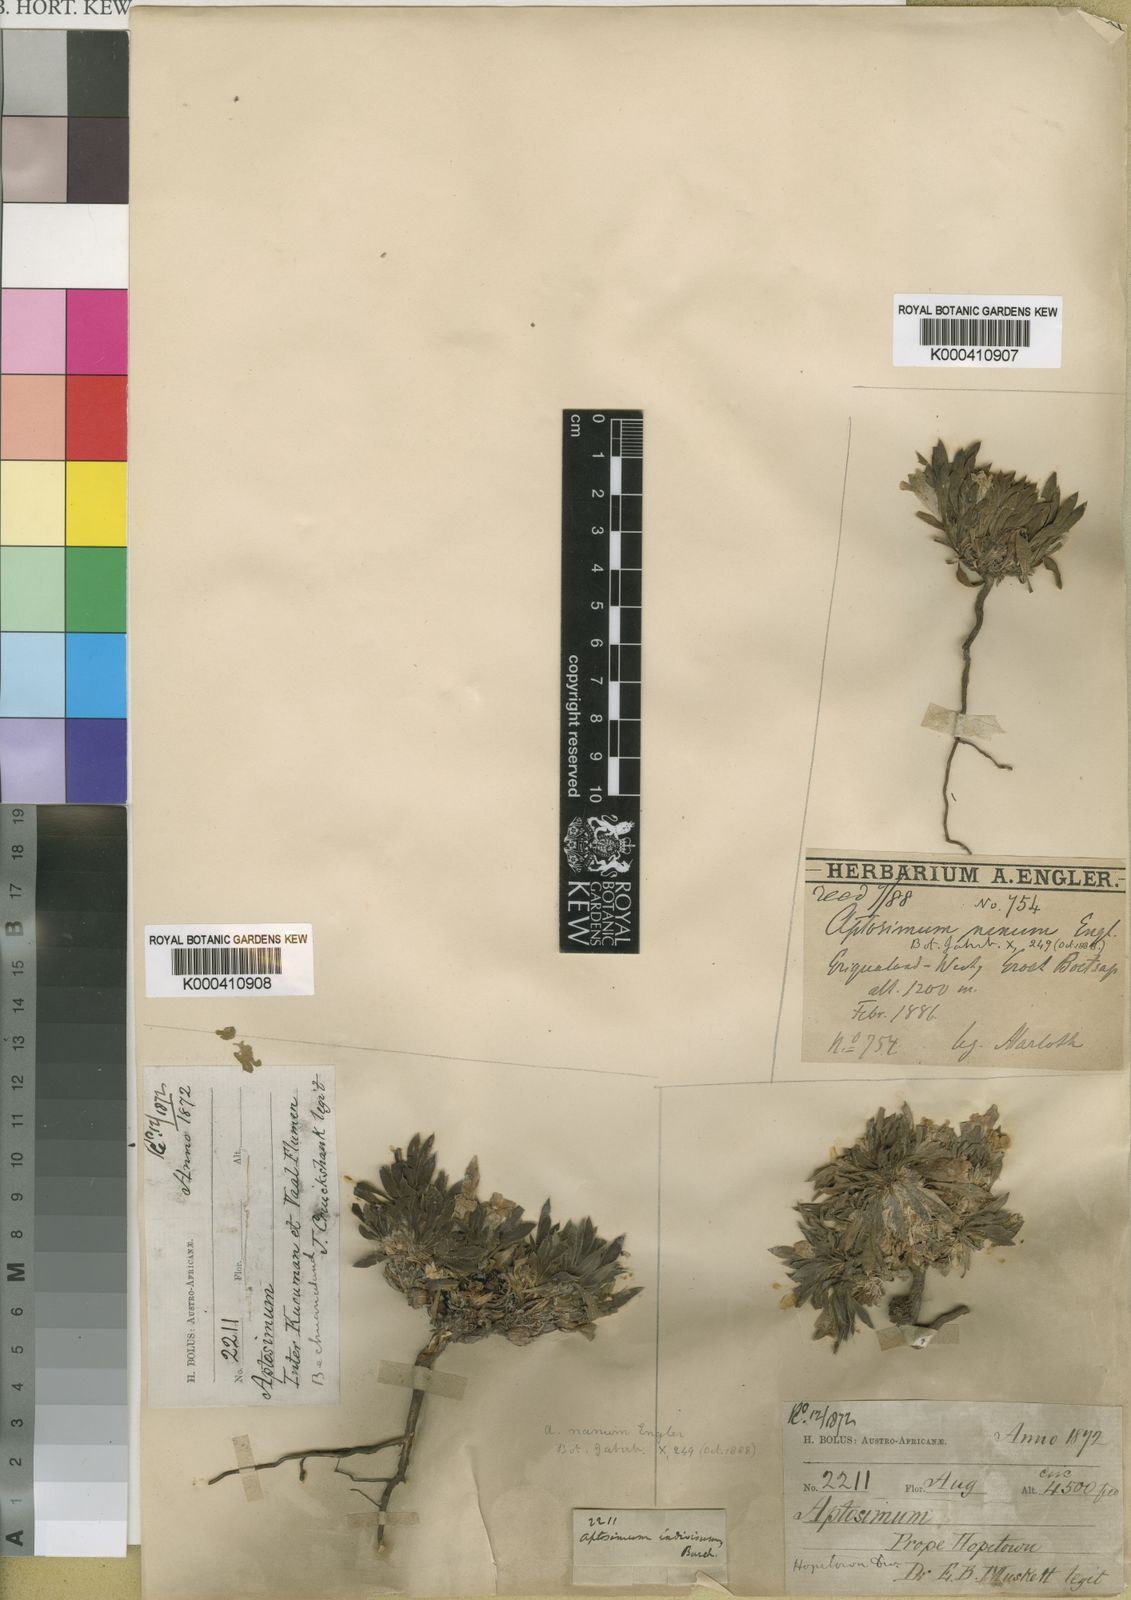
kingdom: Plantae
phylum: Tracheophyta
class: Magnoliopsida
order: Lamiales
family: Scrophulariaceae
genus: Aptosimum
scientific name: Aptosimum indivisum
